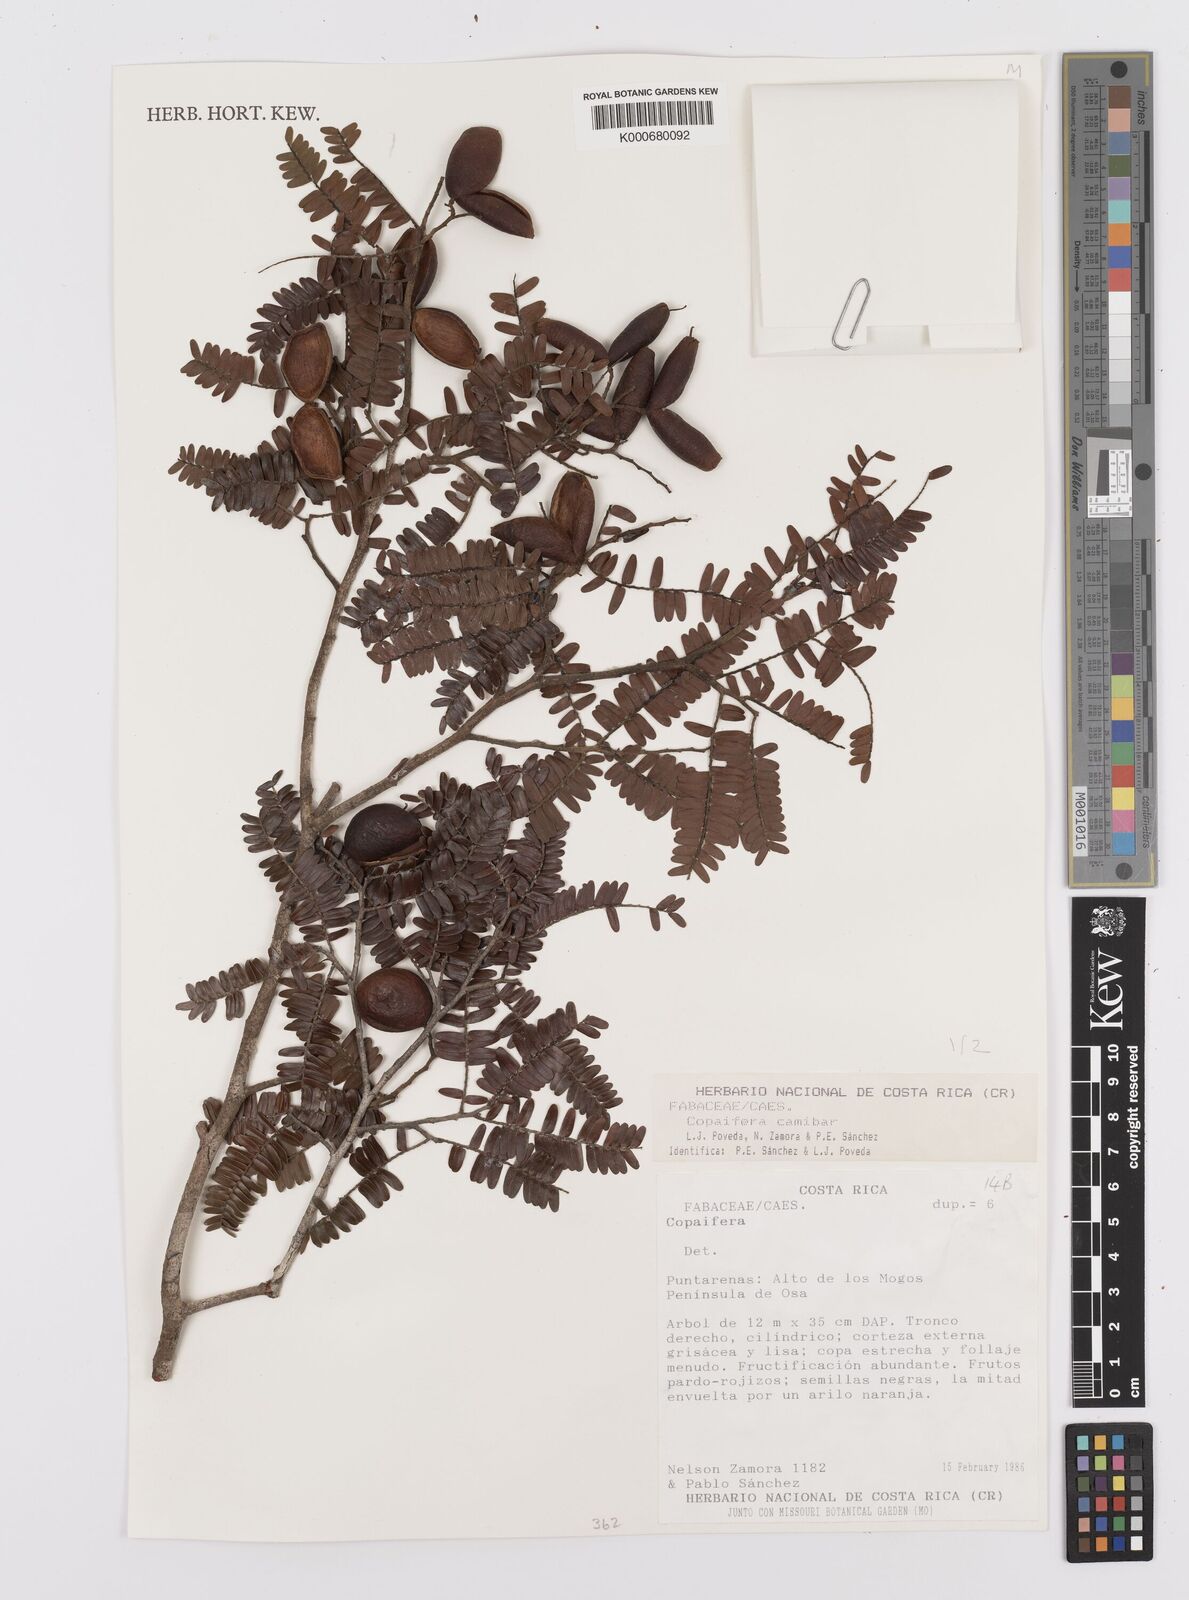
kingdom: Plantae
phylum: Tracheophyta
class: Magnoliopsida
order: Fabales
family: Fabaceae
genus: Copaifera
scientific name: Copaifera
